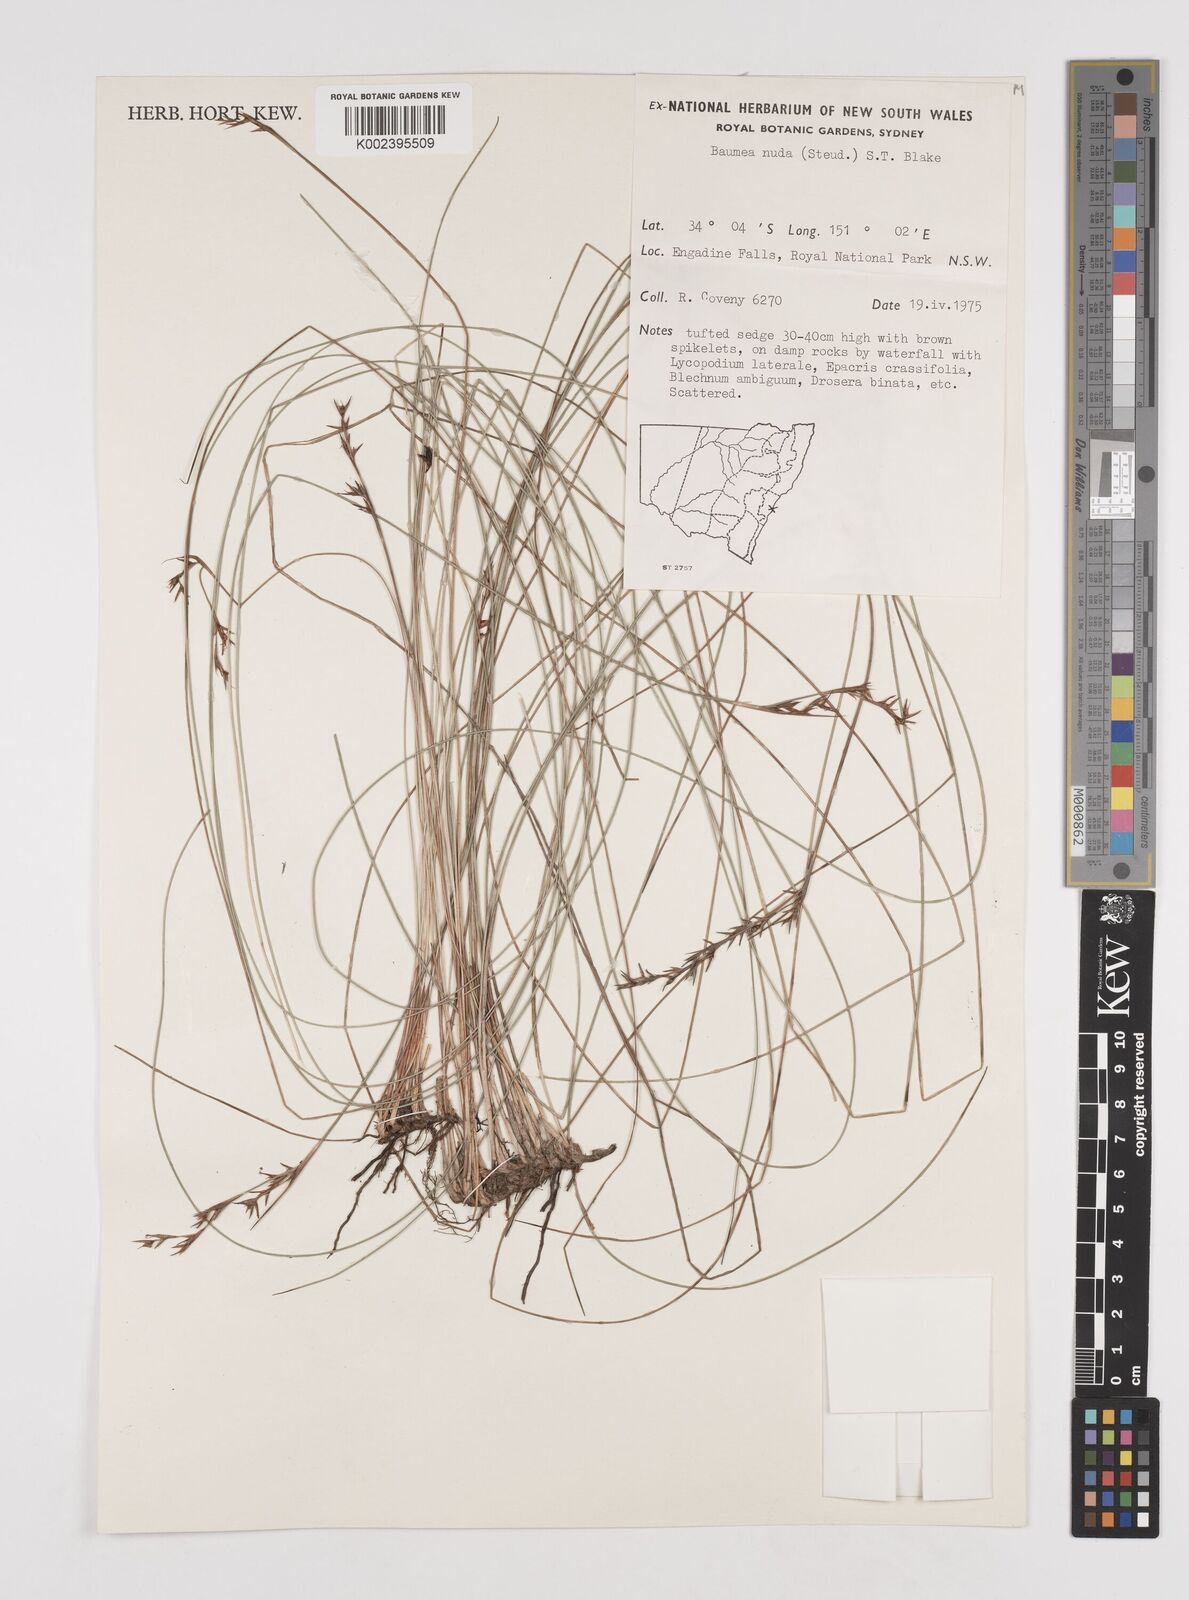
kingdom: Plantae
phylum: Tracheophyta
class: Liliopsida
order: Poales
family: Cyperaceae
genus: Machaerina
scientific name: Machaerina nuda
